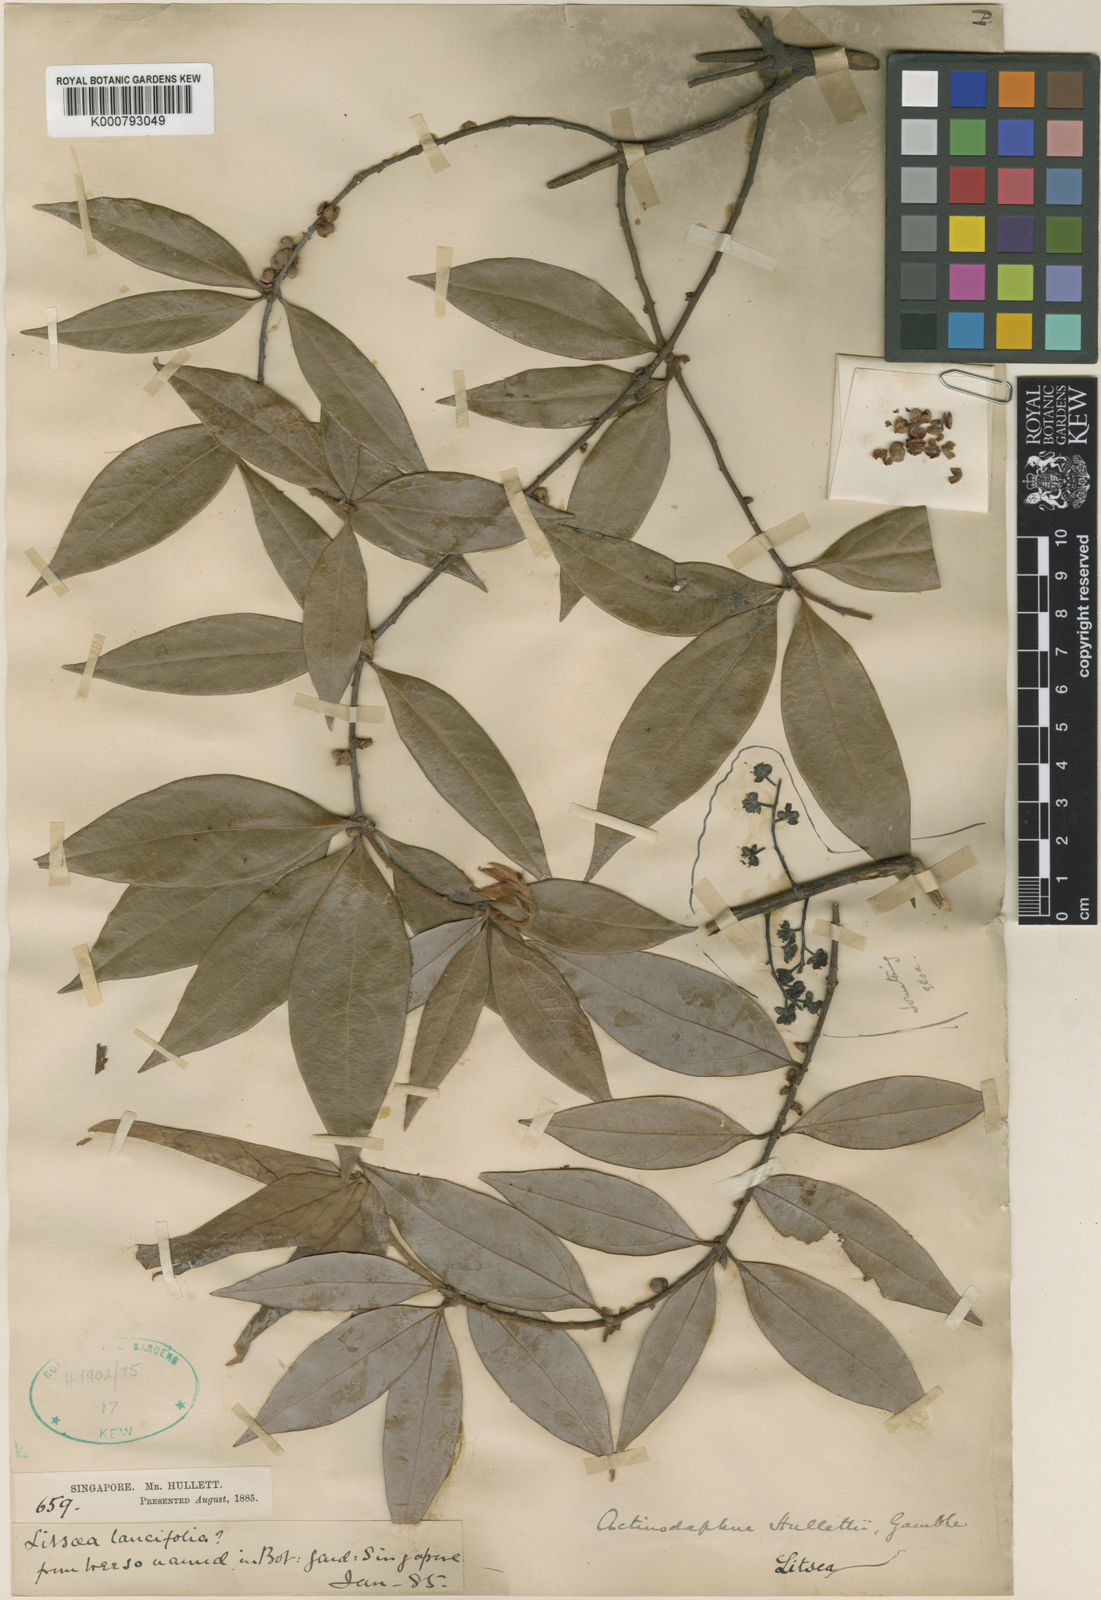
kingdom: Plantae
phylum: Tracheophyta
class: Magnoliopsida
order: Laurales
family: Lauraceae
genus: Actinodaphne
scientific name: Actinodaphne malaccensis
